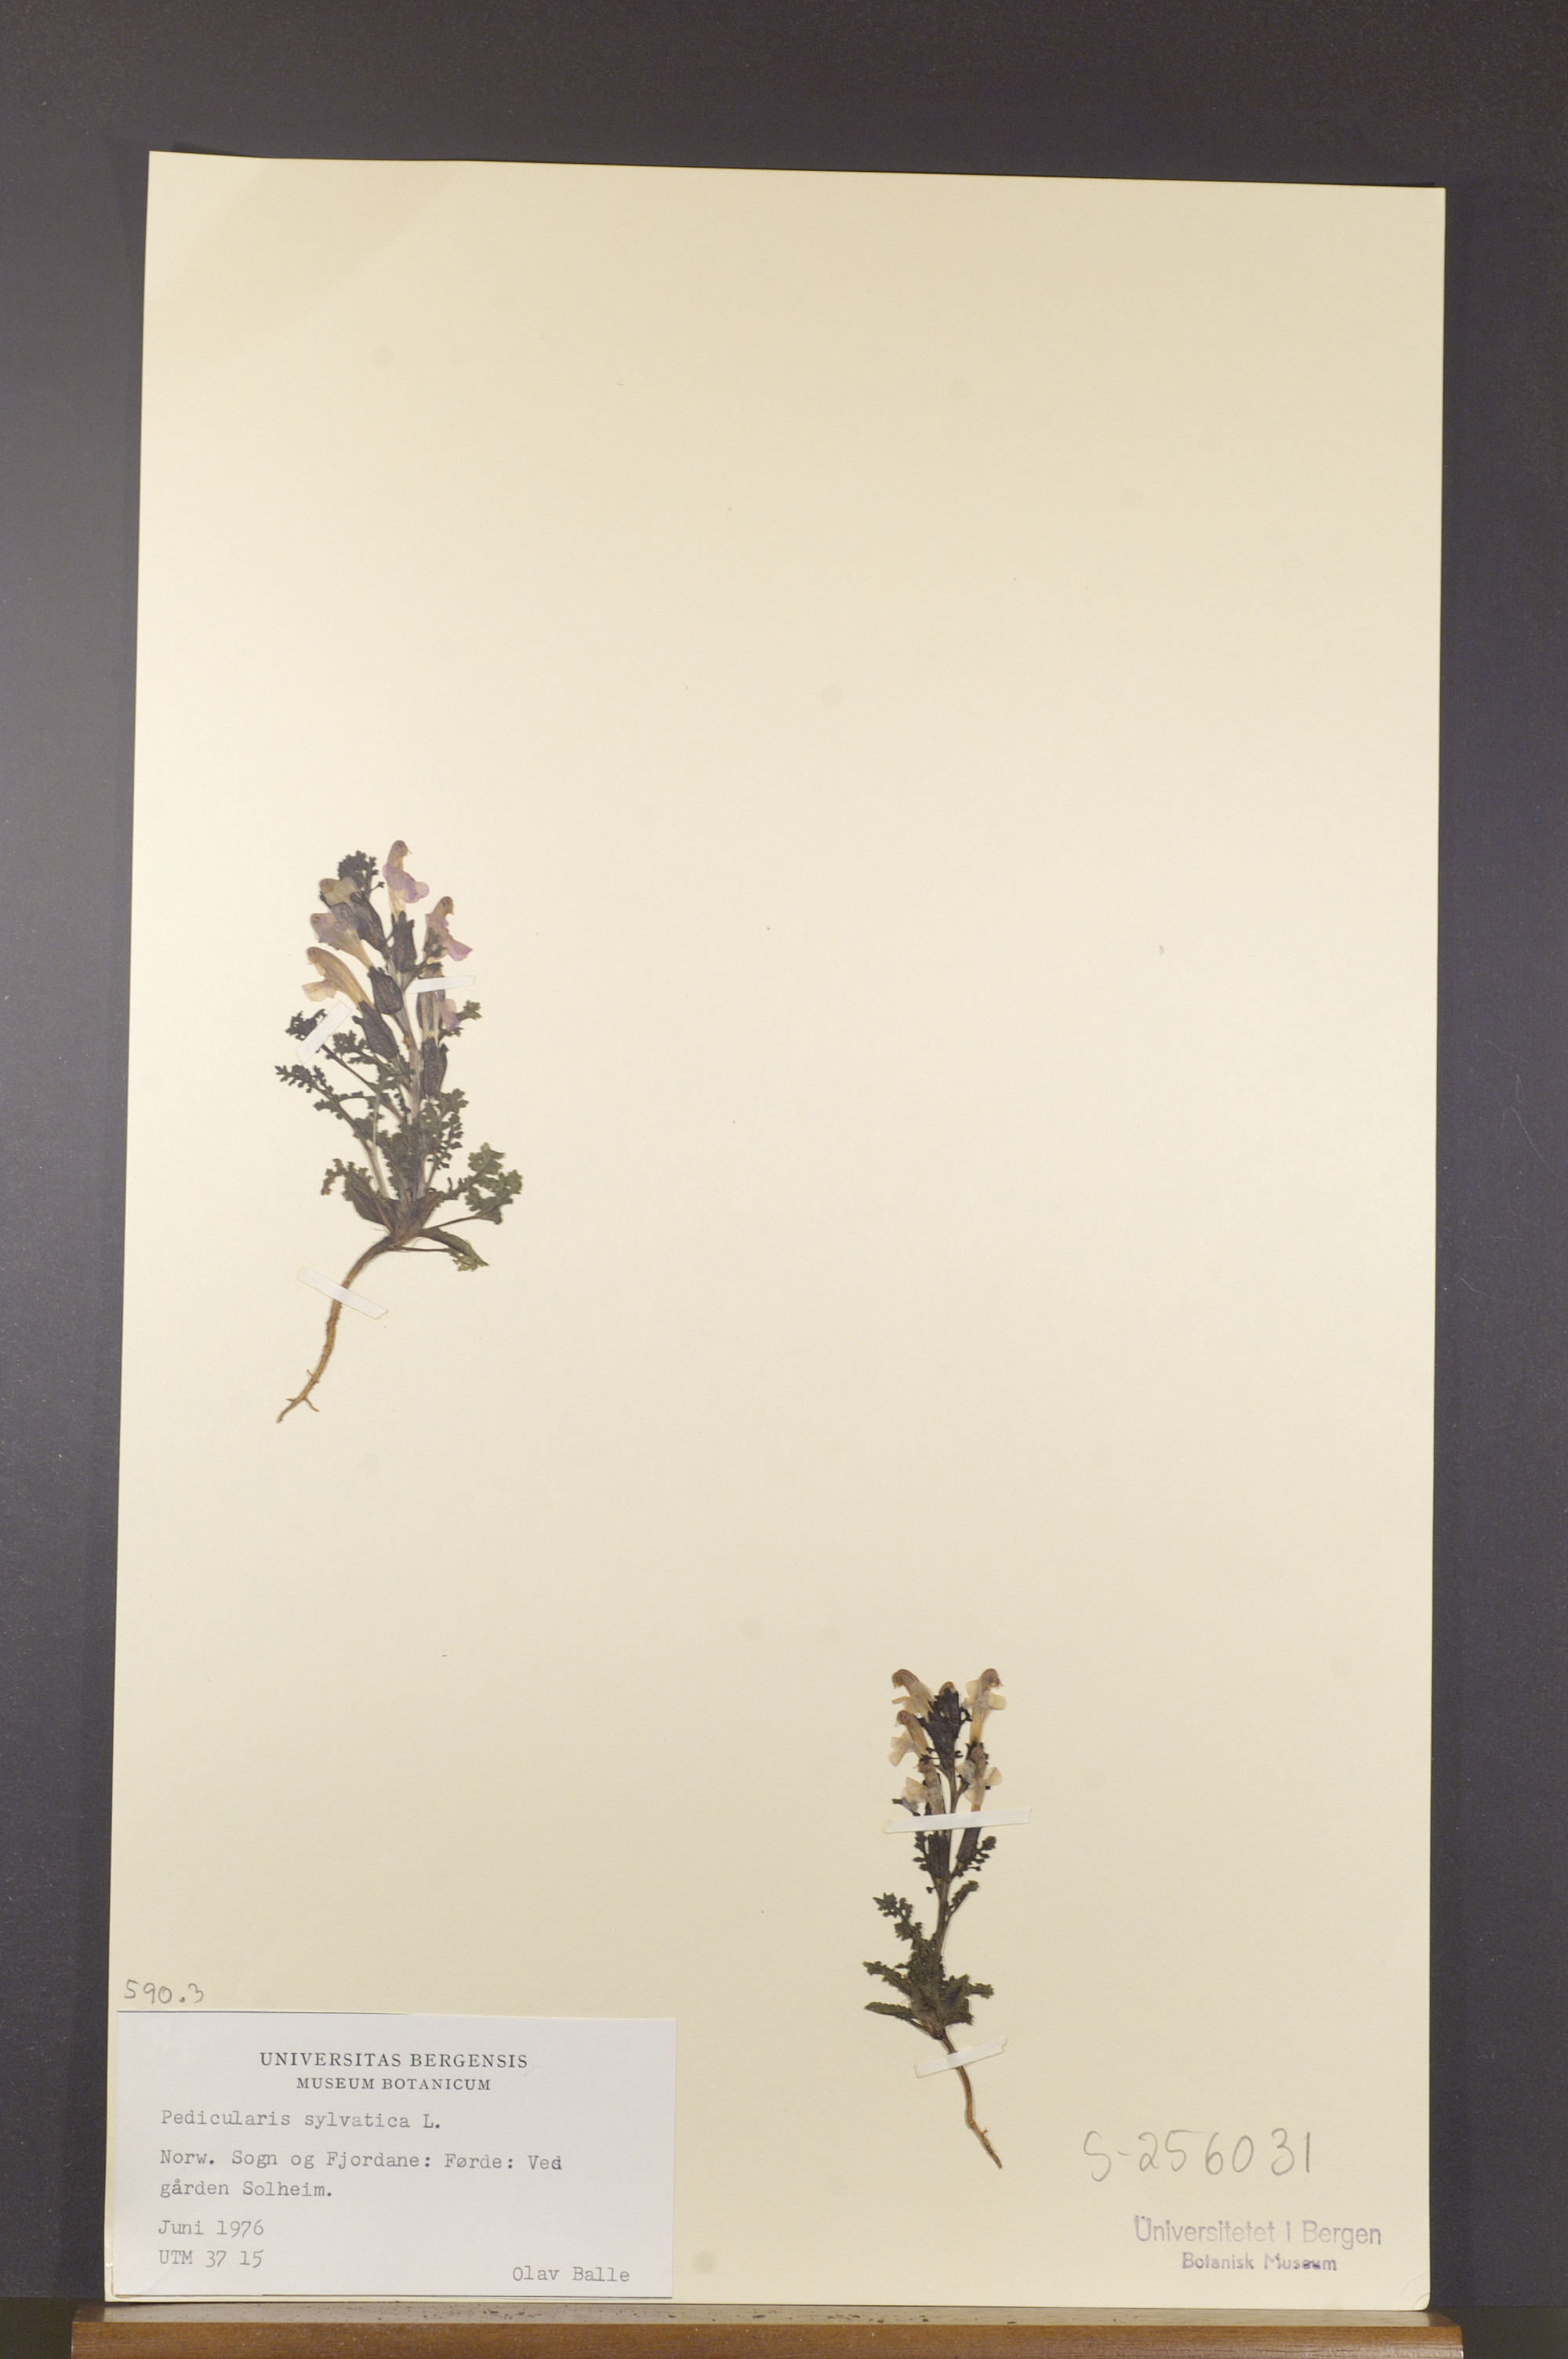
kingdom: Plantae
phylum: Tracheophyta
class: Magnoliopsida
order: Lamiales
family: Orobanchaceae
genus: Pedicularis
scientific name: Pedicularis sylvatica
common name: Lousewort
